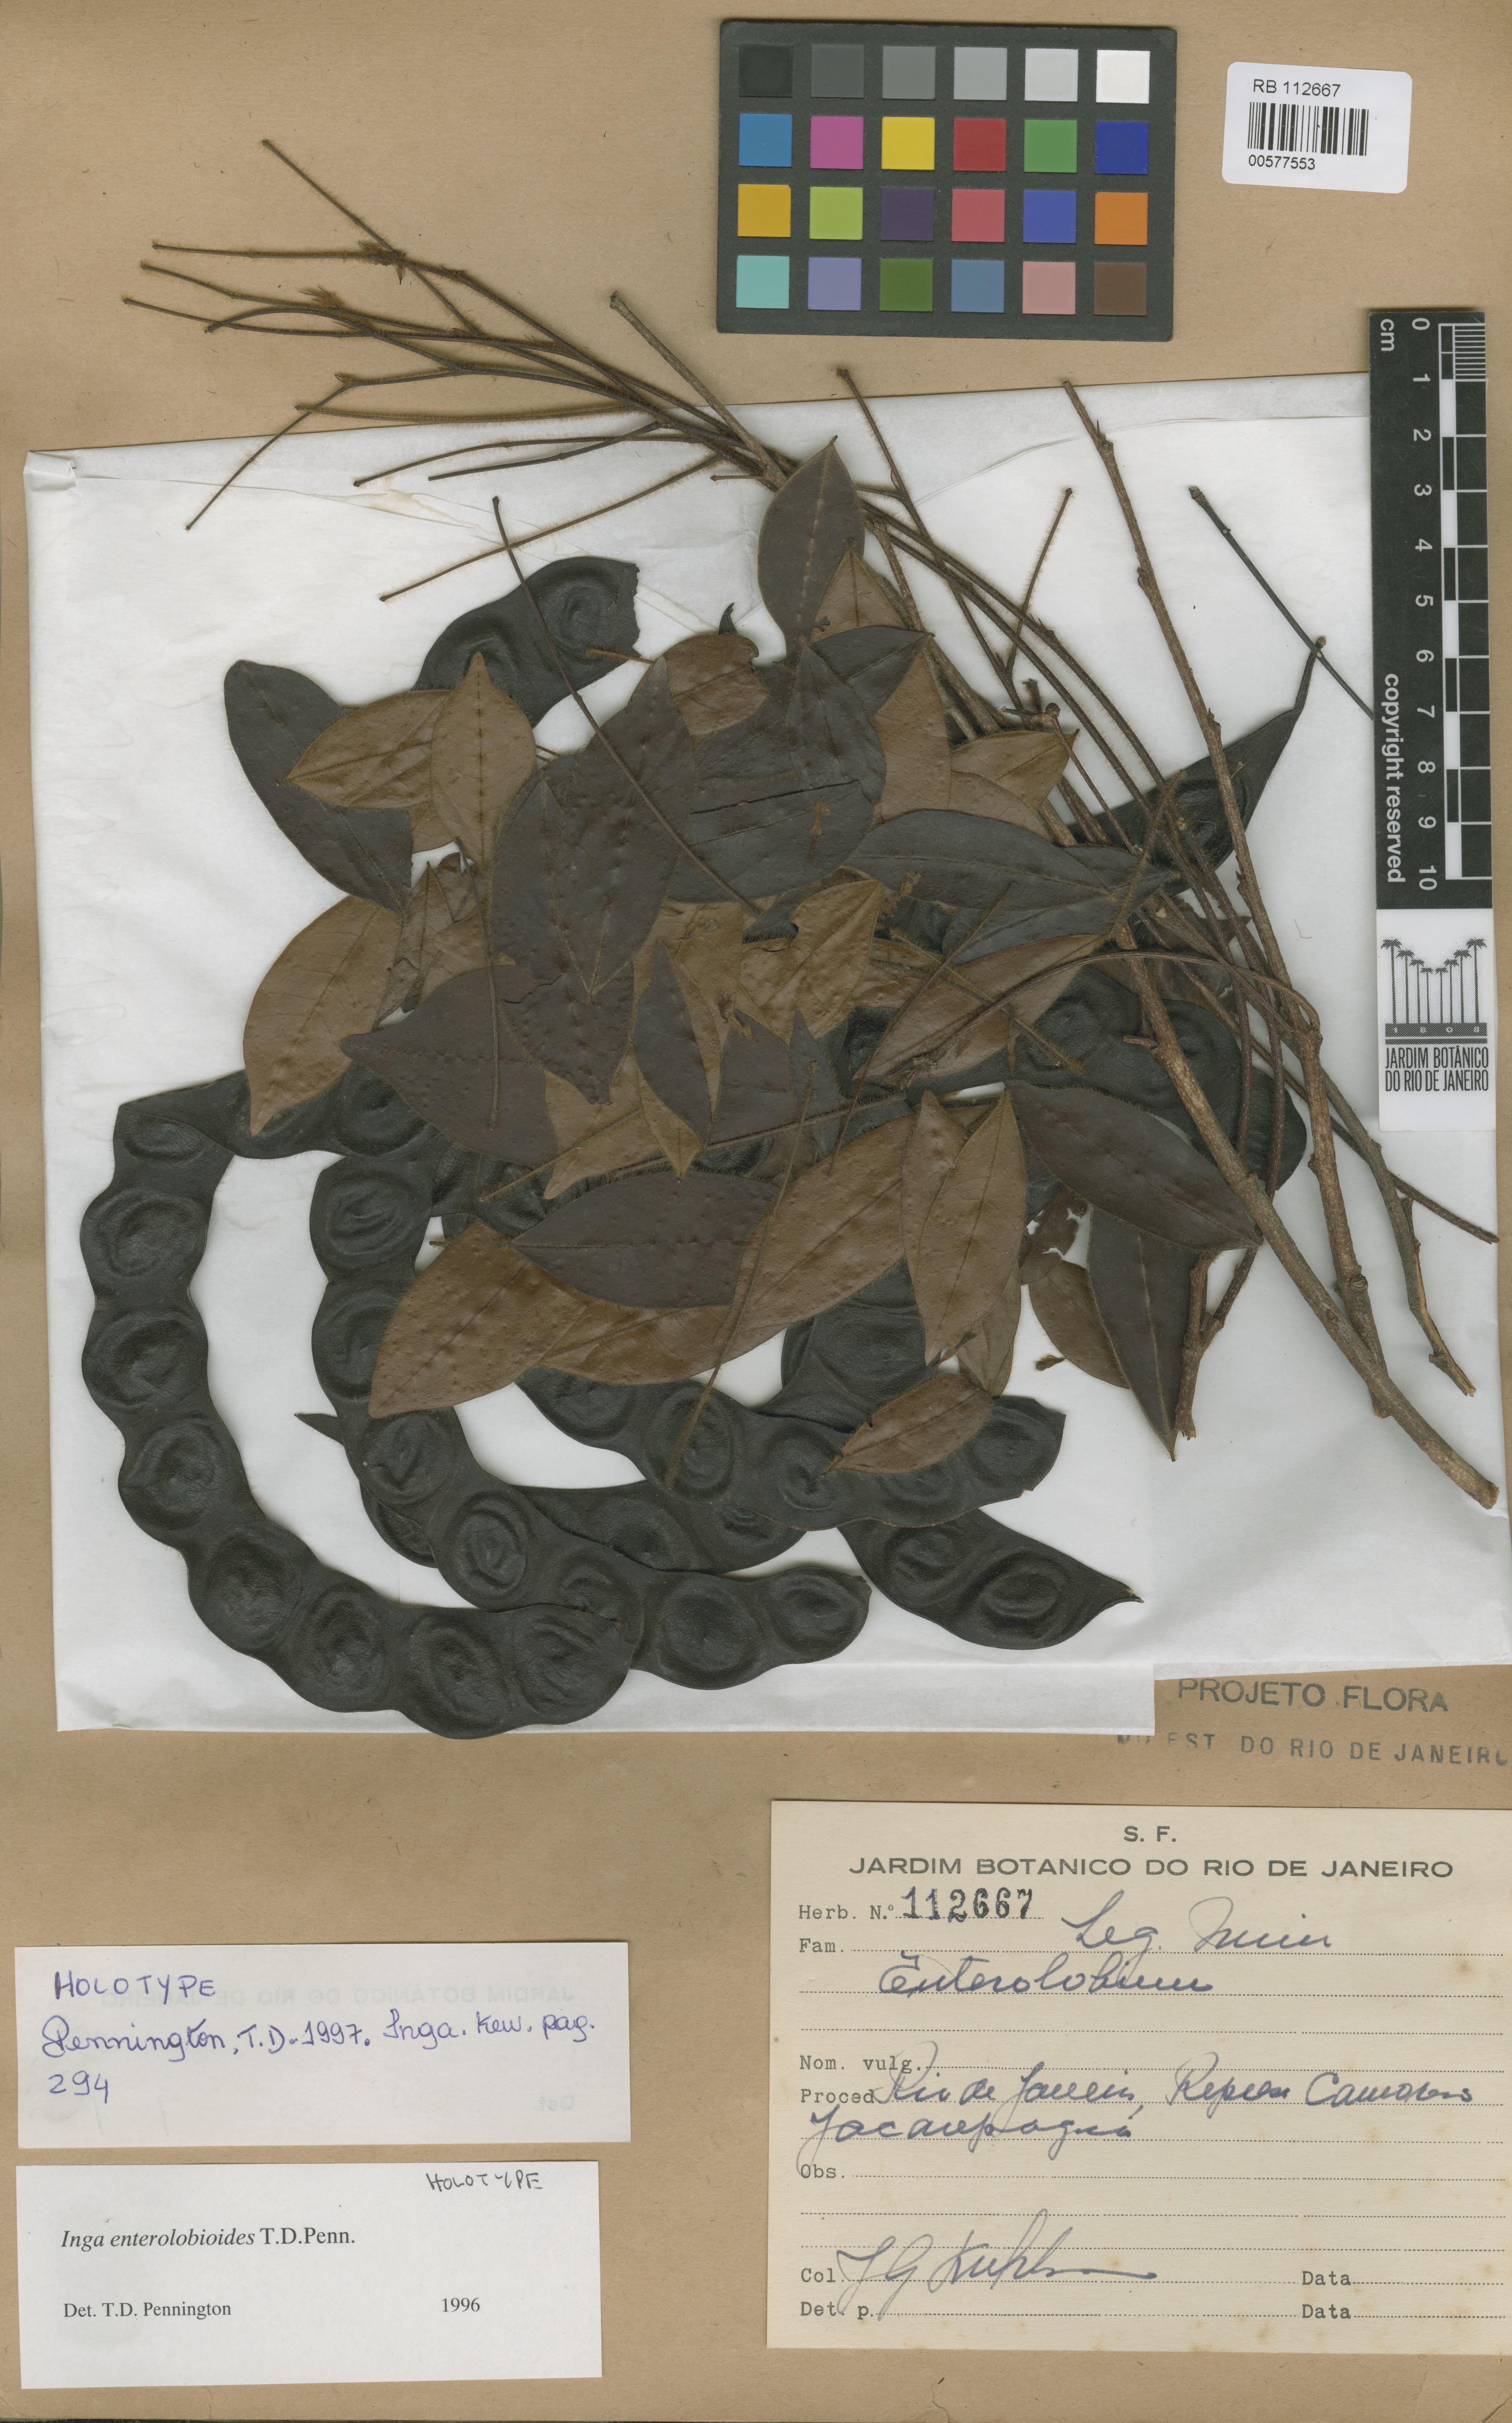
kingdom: Plantae
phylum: Tracheophyta
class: Magnoliopsida
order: Fabales
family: Fabaceae
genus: Inga
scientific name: Inga enterolobioides
